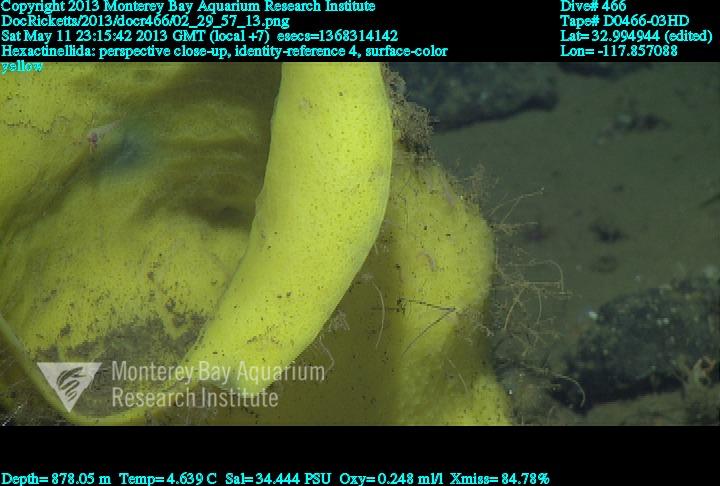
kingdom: Animalia
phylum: Porifera
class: Hexactinellida
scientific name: Hexactinellida
